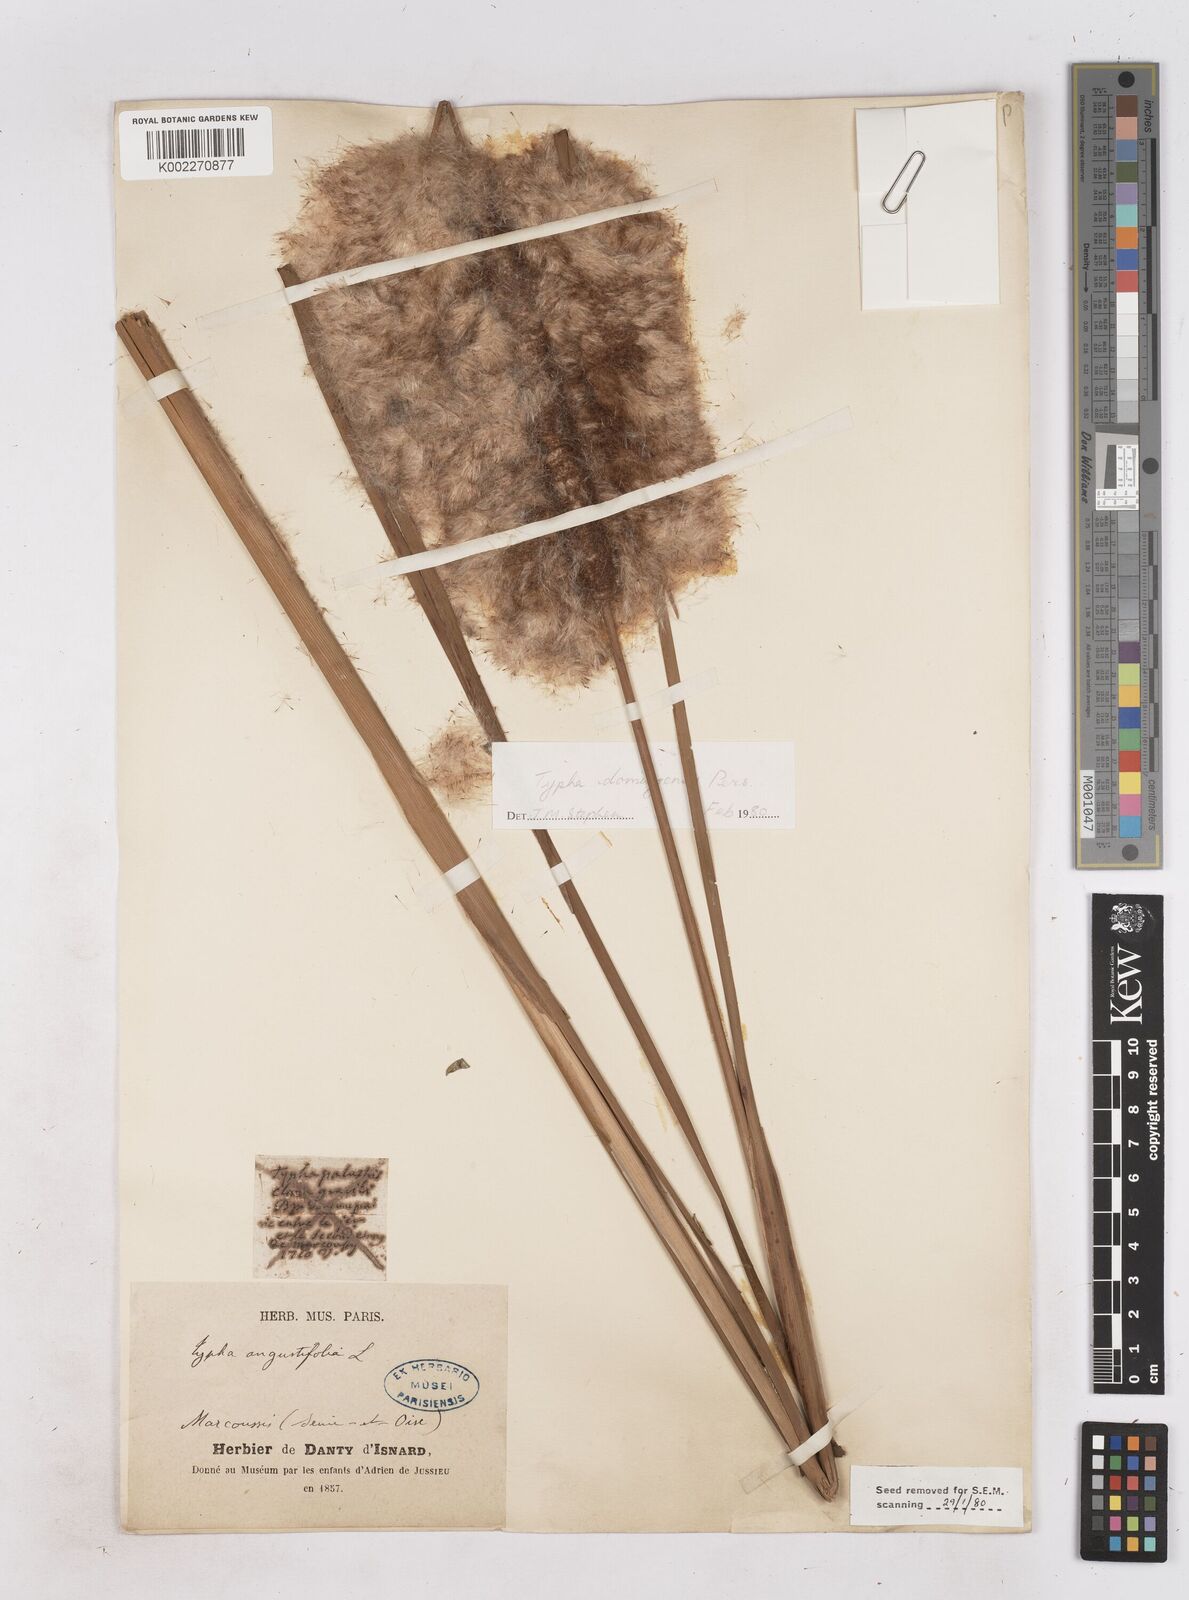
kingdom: Plantae
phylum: Tracheophyta
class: Liliopsida
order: Poales
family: Typhaceae
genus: Typha
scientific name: Typha domingensis
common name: Southern cattail
